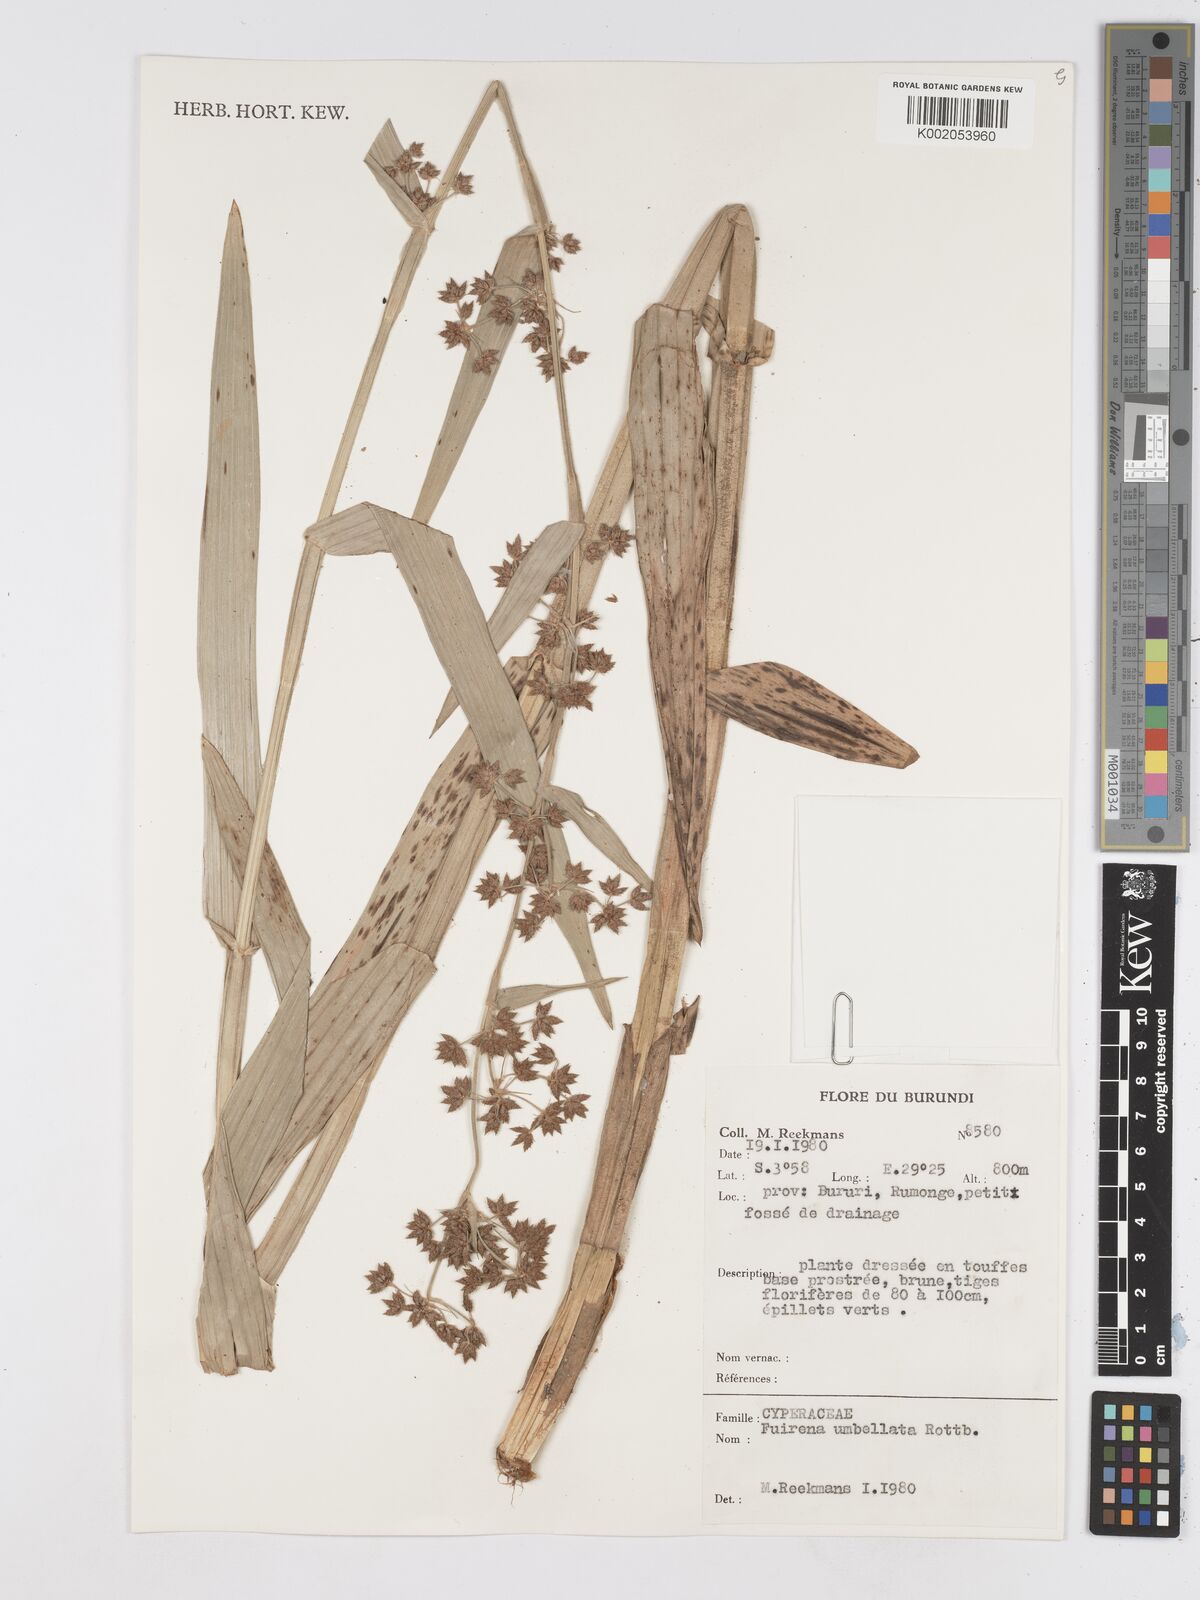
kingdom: Plantae
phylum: Tracheophyta
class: Liliopsida
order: Poales
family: Cyperaceae
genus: Fuirena
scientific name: Fuirena umbellata
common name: Yefen
